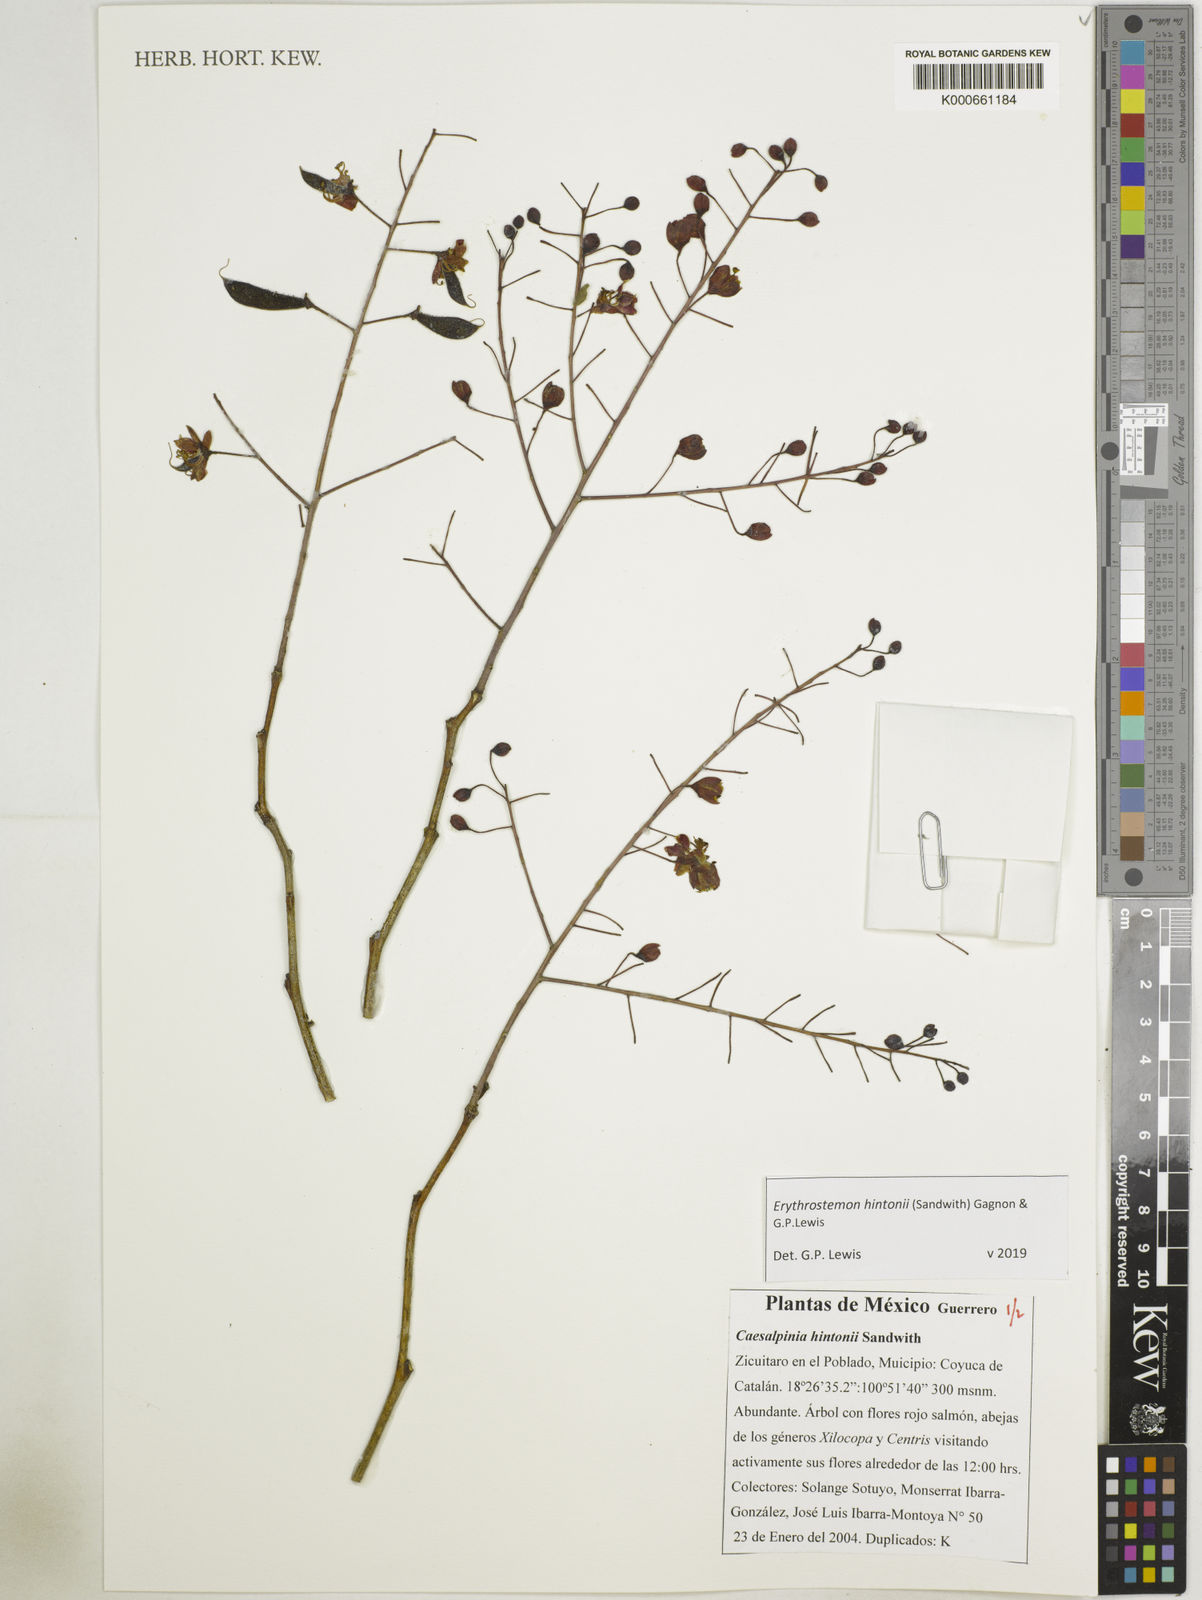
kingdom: Plantae
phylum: Tracheophyta
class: Magnoliopsida
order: Fabales
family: Fabaceae
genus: Erythrostemon
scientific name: Erythrostemon hintonii
